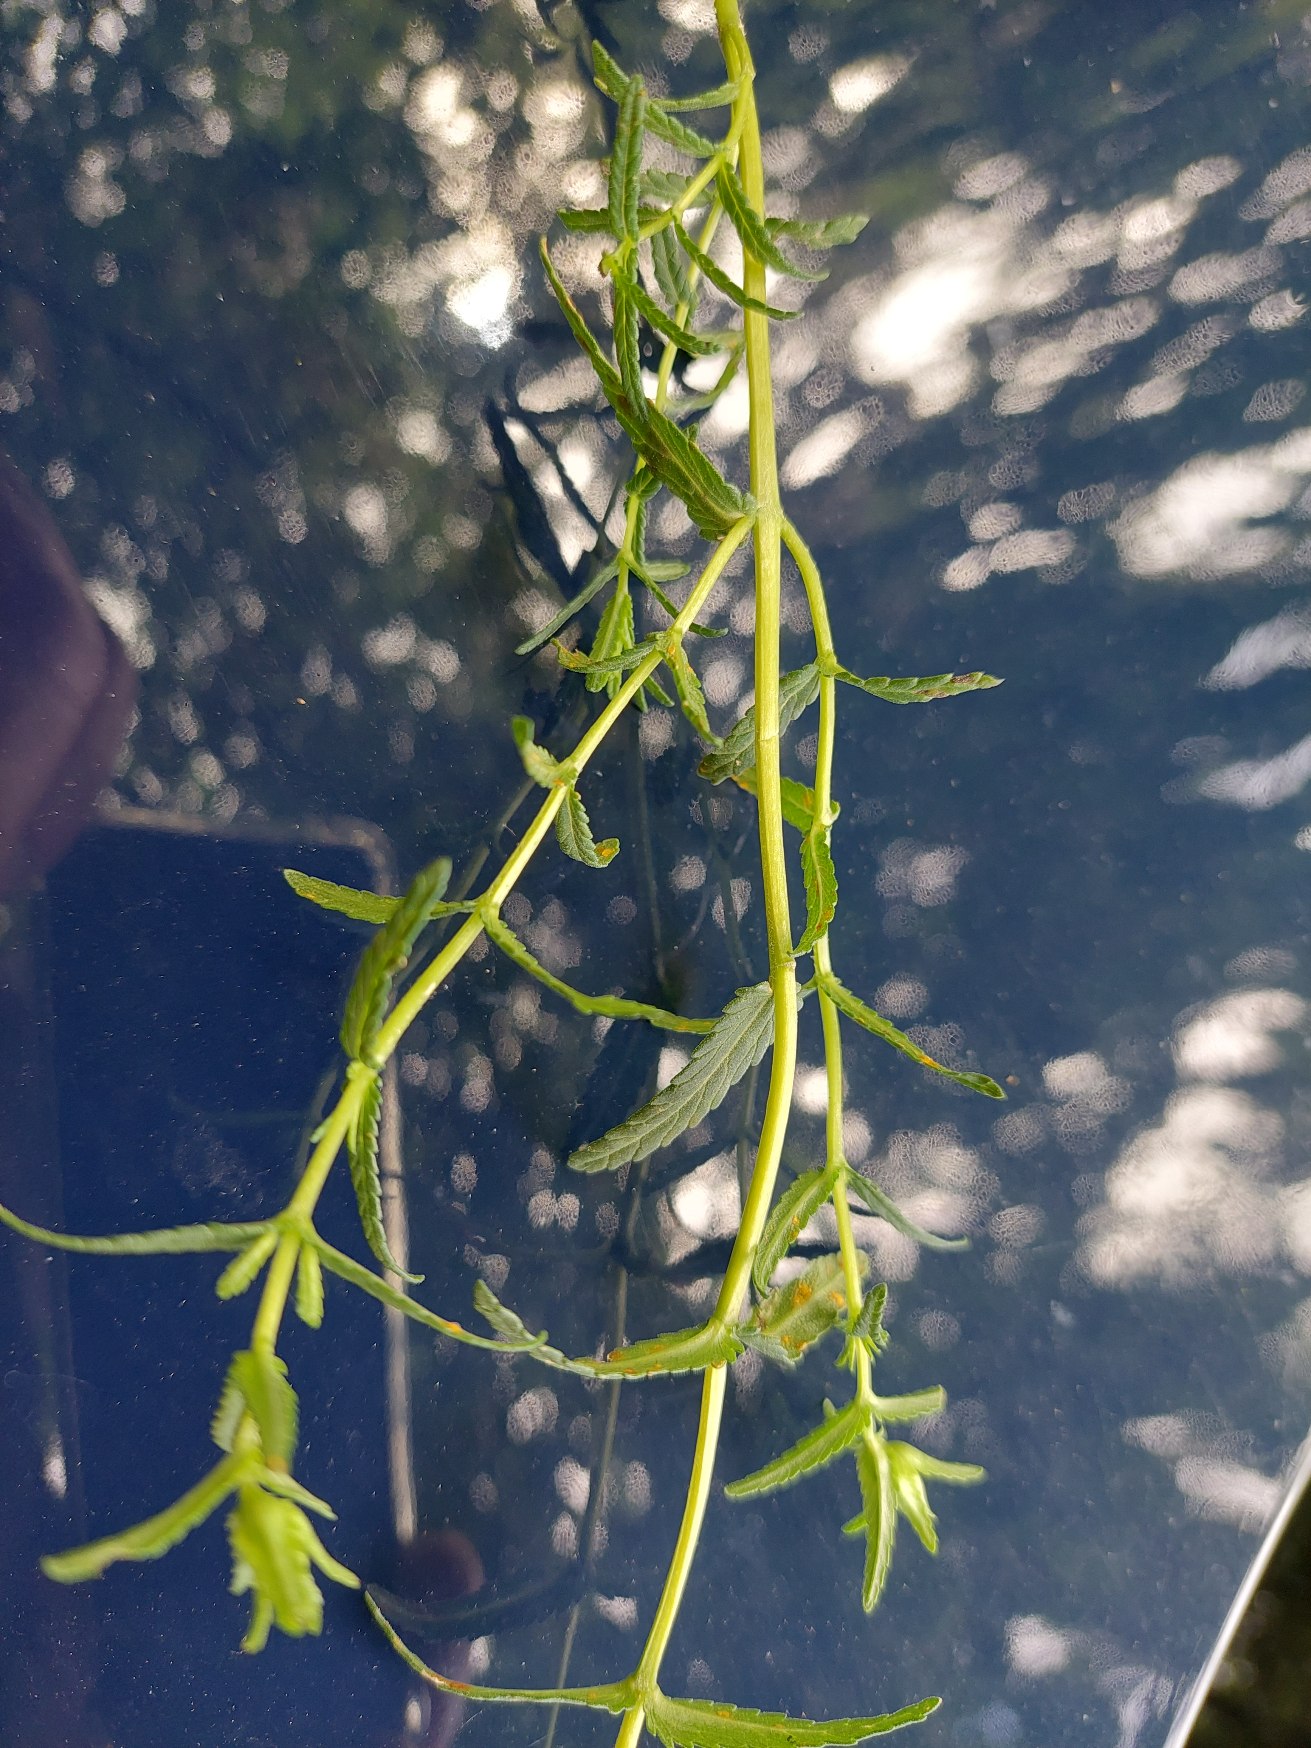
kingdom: Plantae
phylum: Tracheophyta
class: Magnoliopsida
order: Lamiales
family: Orobanchaceae
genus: Rhinanthus
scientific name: Rhinanthus minor
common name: Liden skjaller
